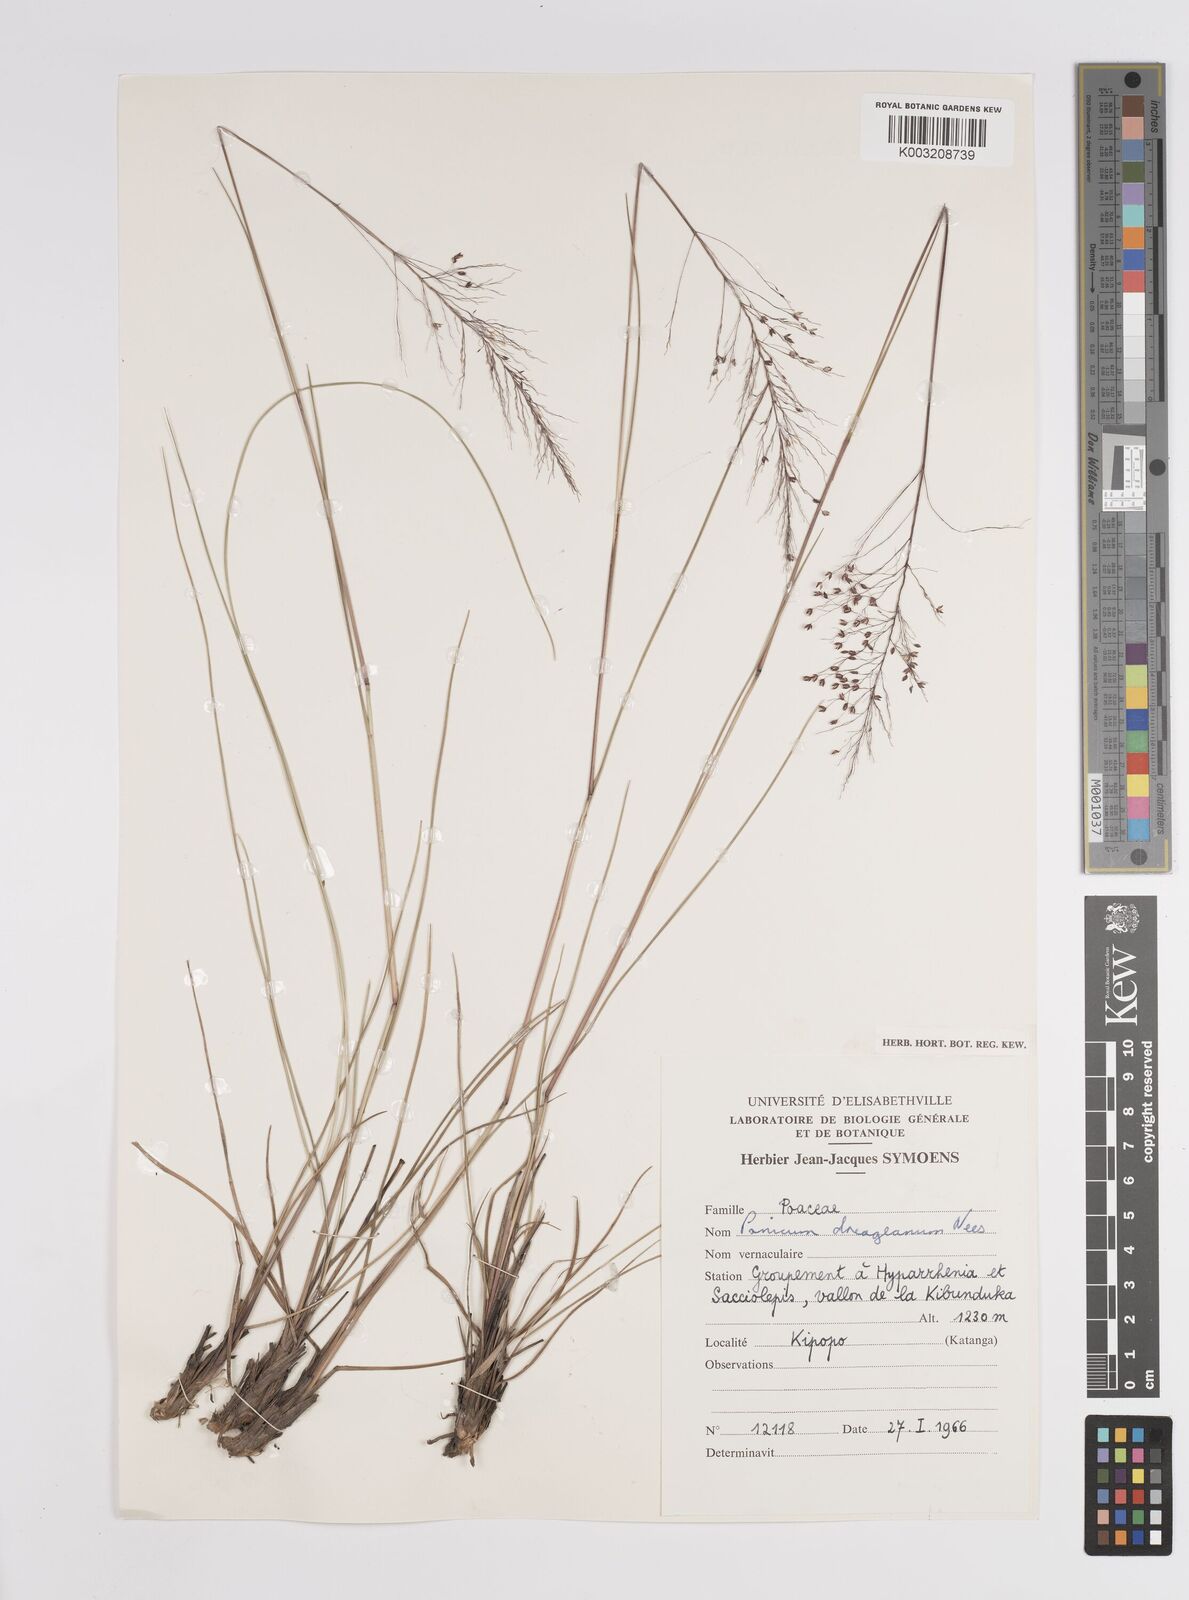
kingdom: Plantae
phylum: Tracheophyta
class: Liliopsida
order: Poales
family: Poaceae
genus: Panicum
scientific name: Panicum dregeanum
